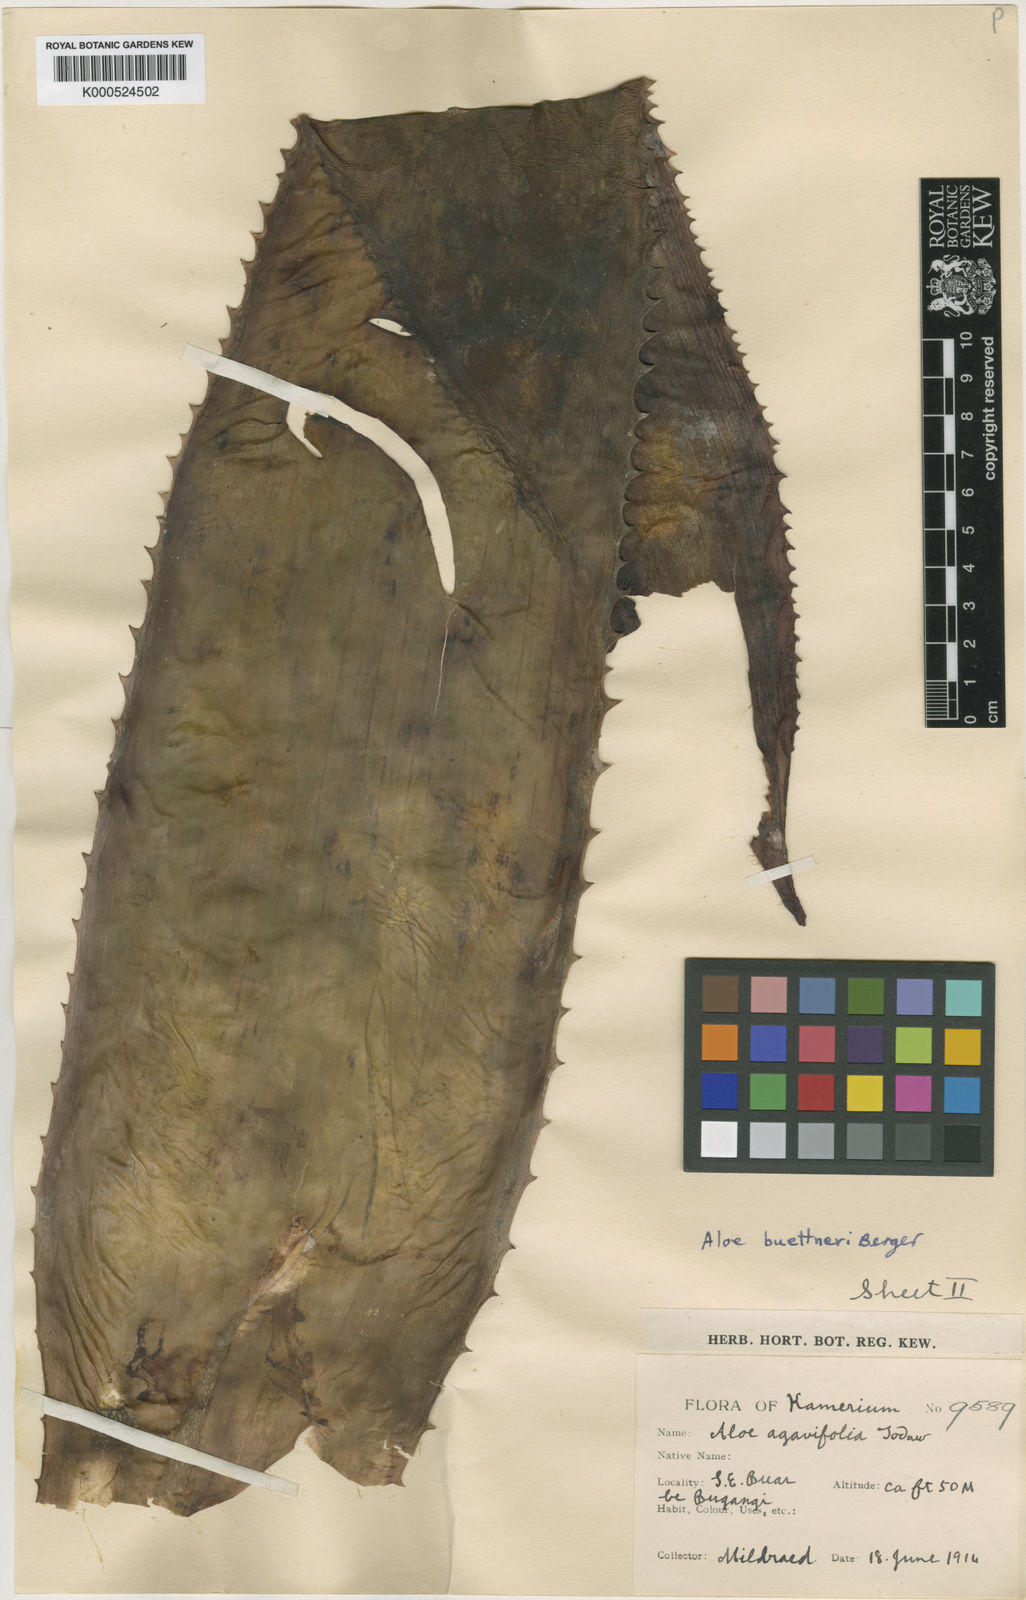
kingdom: Plantae
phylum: Tracheophyta
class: Liliopsida
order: Asparagales
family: Asphodelaceae
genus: Aloe
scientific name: Aloe buettneri
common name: West african aloe
